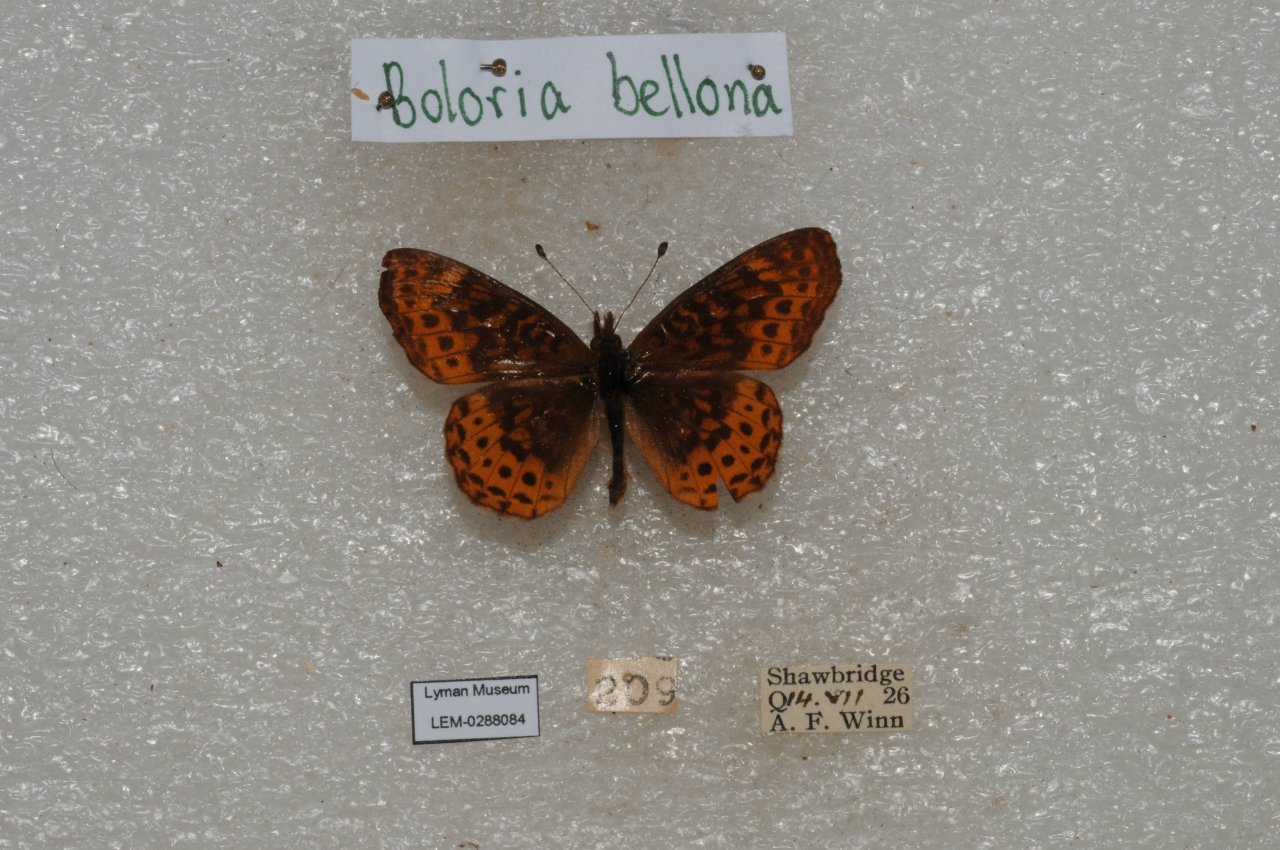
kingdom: Animalia
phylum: Arthropoda
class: Insecta
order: Lepidoptera
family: Nymphalidae
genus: Clossiana
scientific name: Clossiana toddi
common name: Meadow Fritillary
